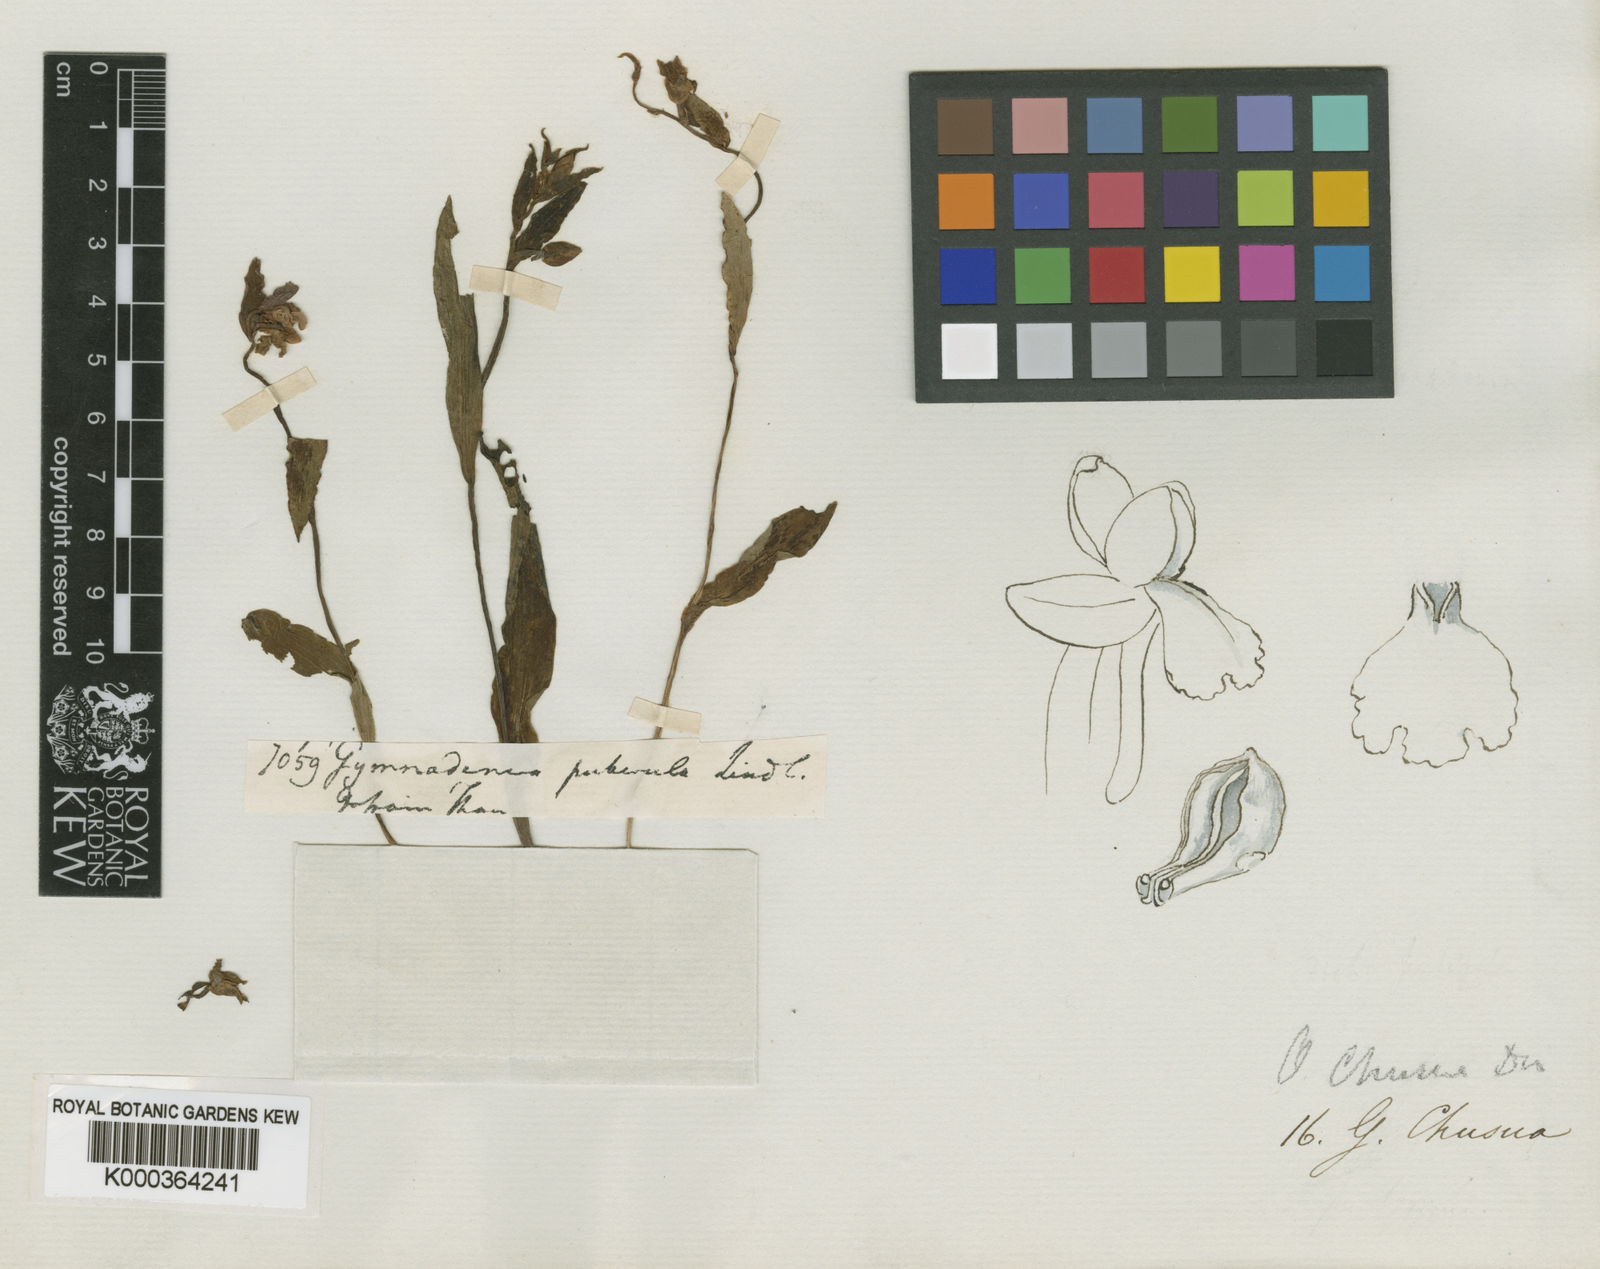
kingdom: Plantae
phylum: Tracheophyta
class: Liliopsida
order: Asparagales
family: Orchidaceae
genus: Hemipilia
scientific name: Hemipilia
